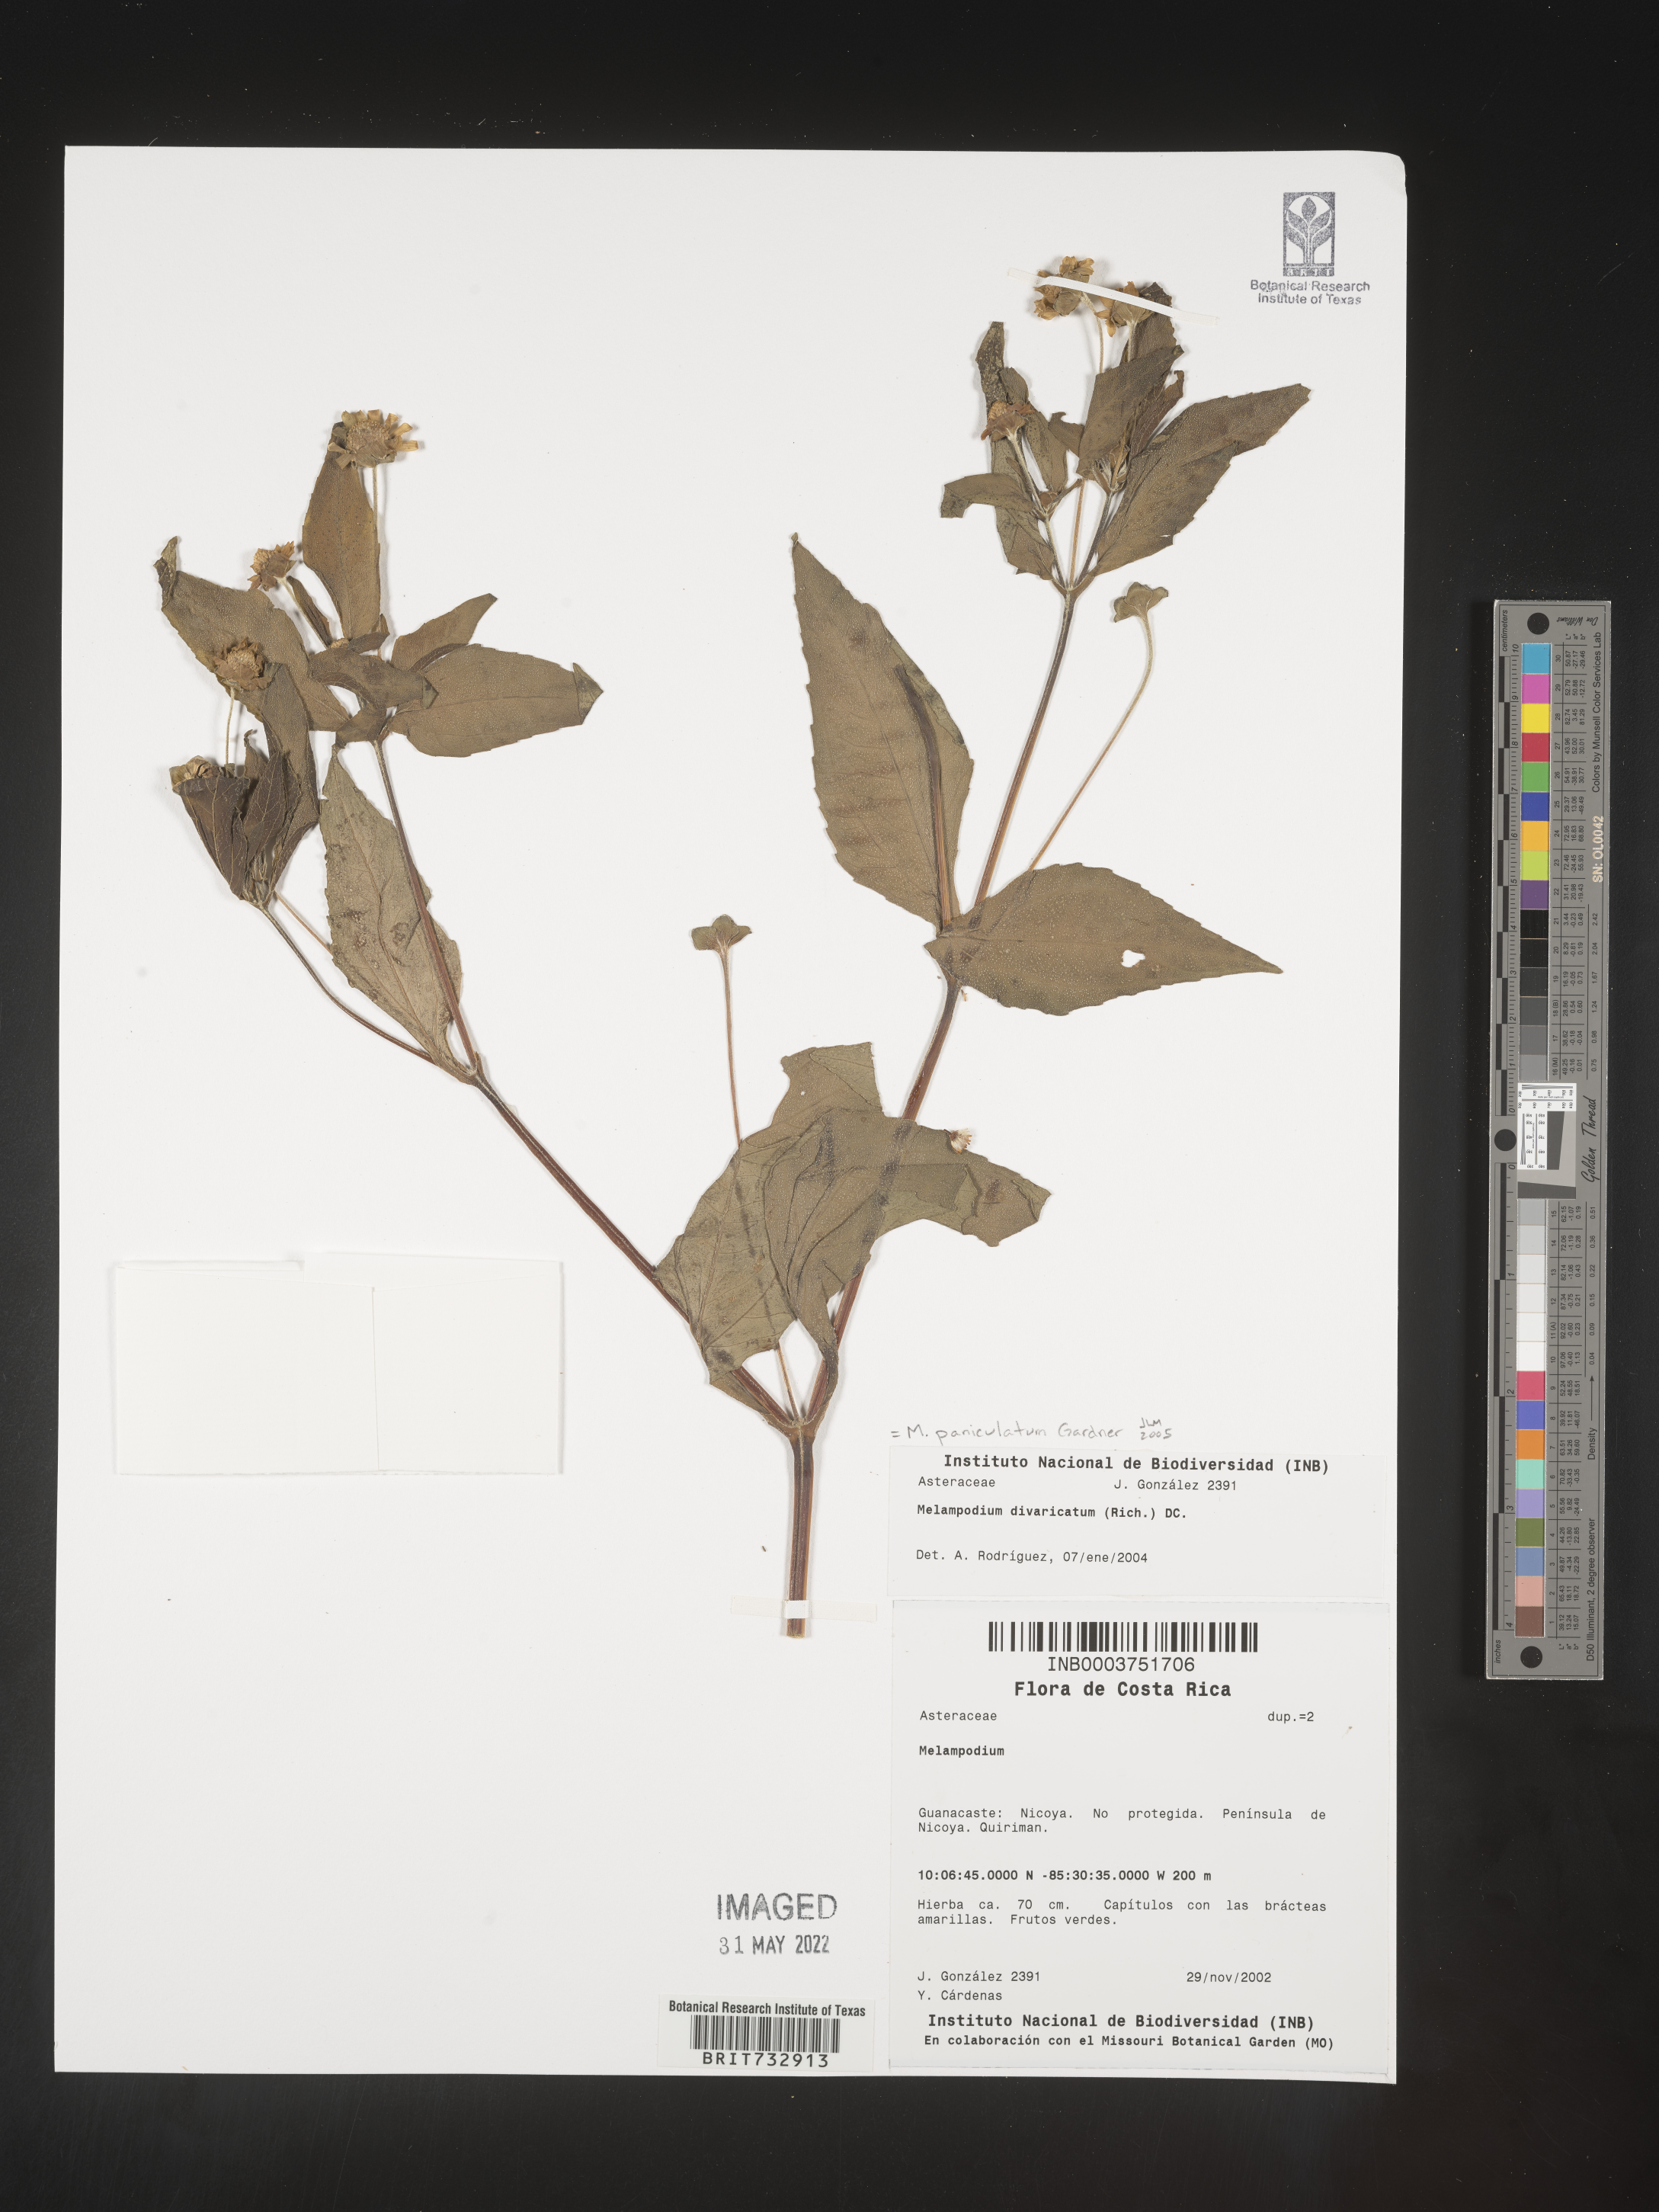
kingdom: Plantae
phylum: Tracheophyta
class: Magnoliopsida
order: Asterales
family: Asteraceae
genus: Melampodium
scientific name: Melampodium
